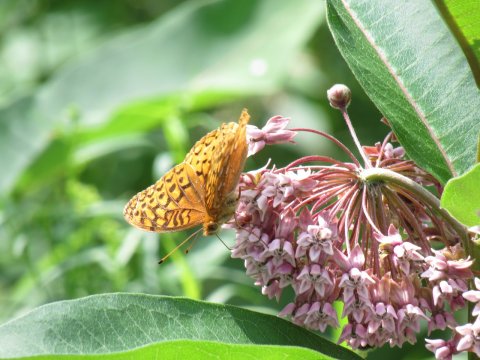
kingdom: Animalia
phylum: Arthropoda
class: Insecta
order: Lepidoptera
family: Nymphalidae
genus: Speyeria
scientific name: Speyeria cybele
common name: Great Spangled Fritillary
